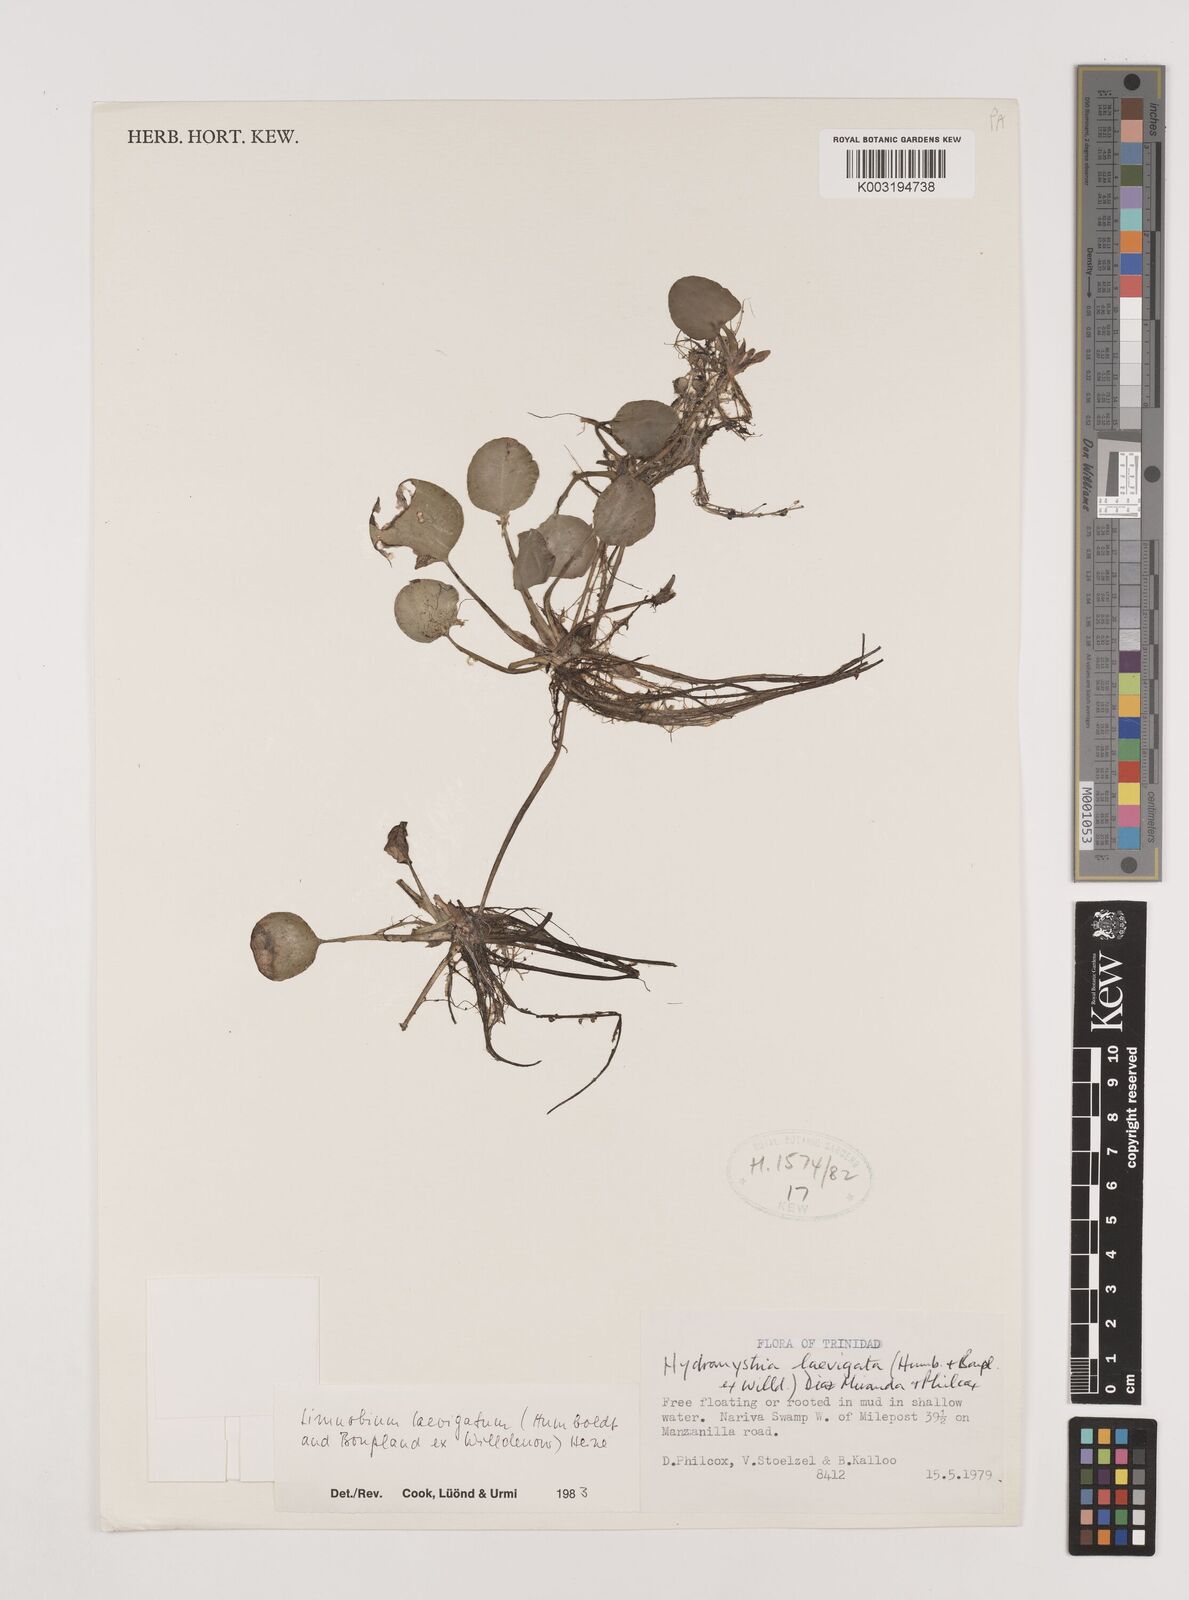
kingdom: Plantae
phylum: Tracheophyta
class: Liliopsida
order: Alismatales
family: Hydrocharitaceae
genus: Hydrocharis
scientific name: Hydrocharis laevigata
